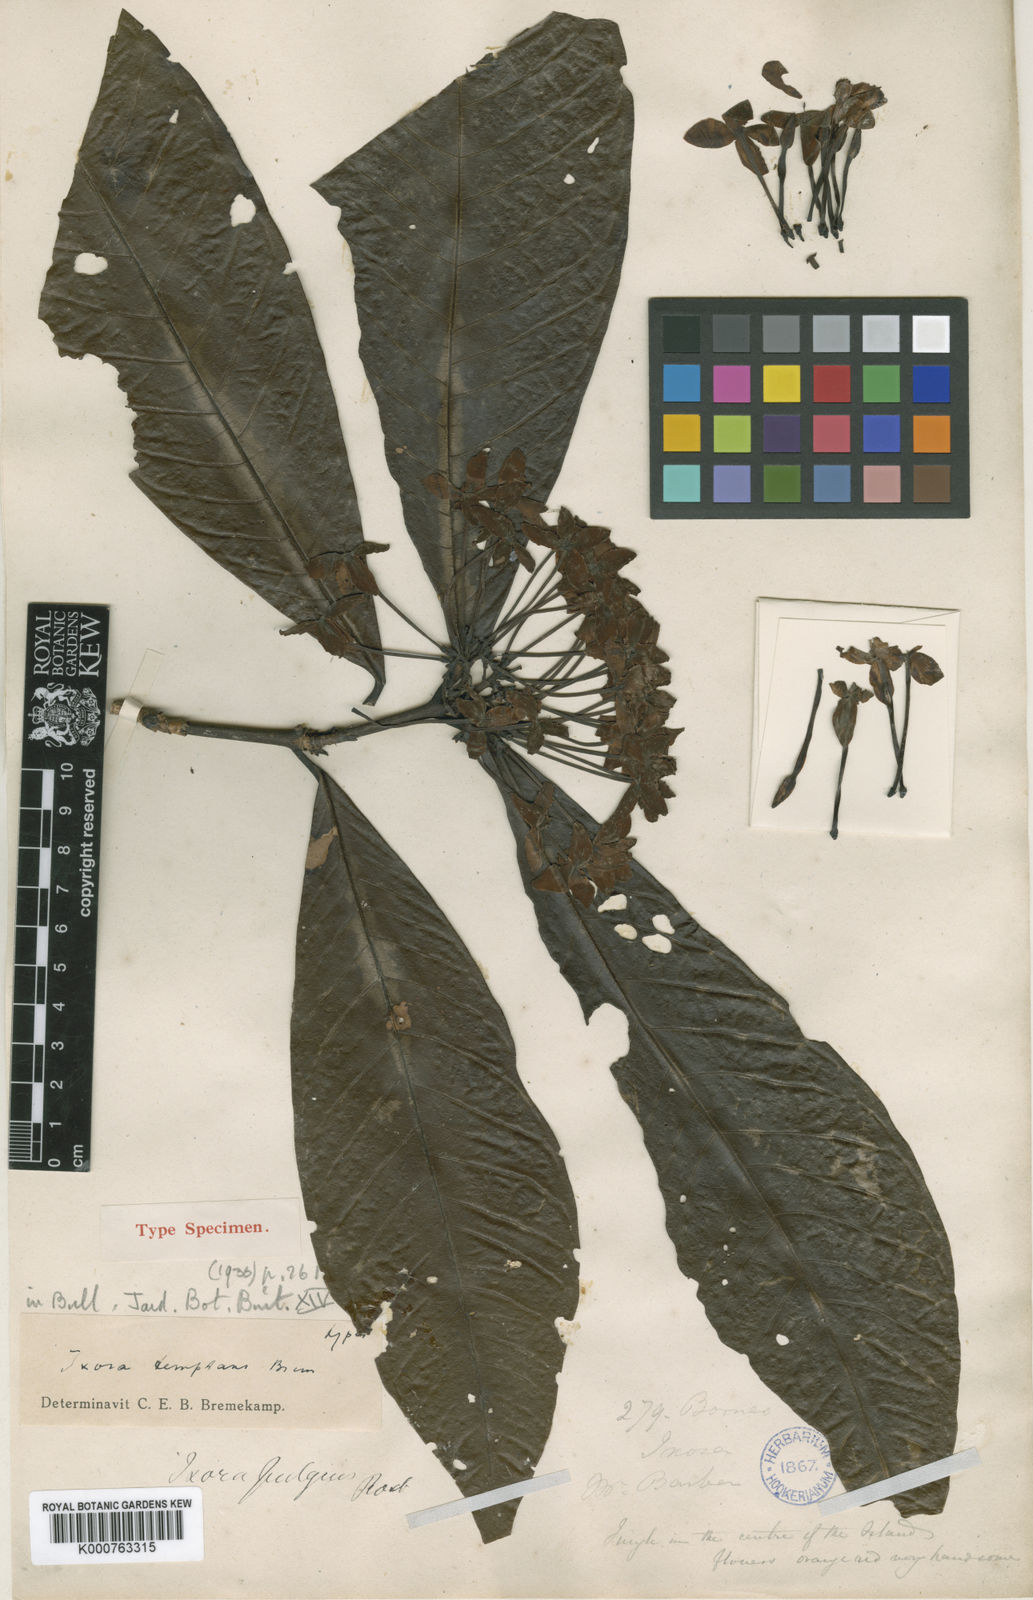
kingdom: Plantae
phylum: Tracheophyta
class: Magnoliopsida
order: Gentianales
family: Rubiaceae
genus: Ixora
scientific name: Ixora temptans
